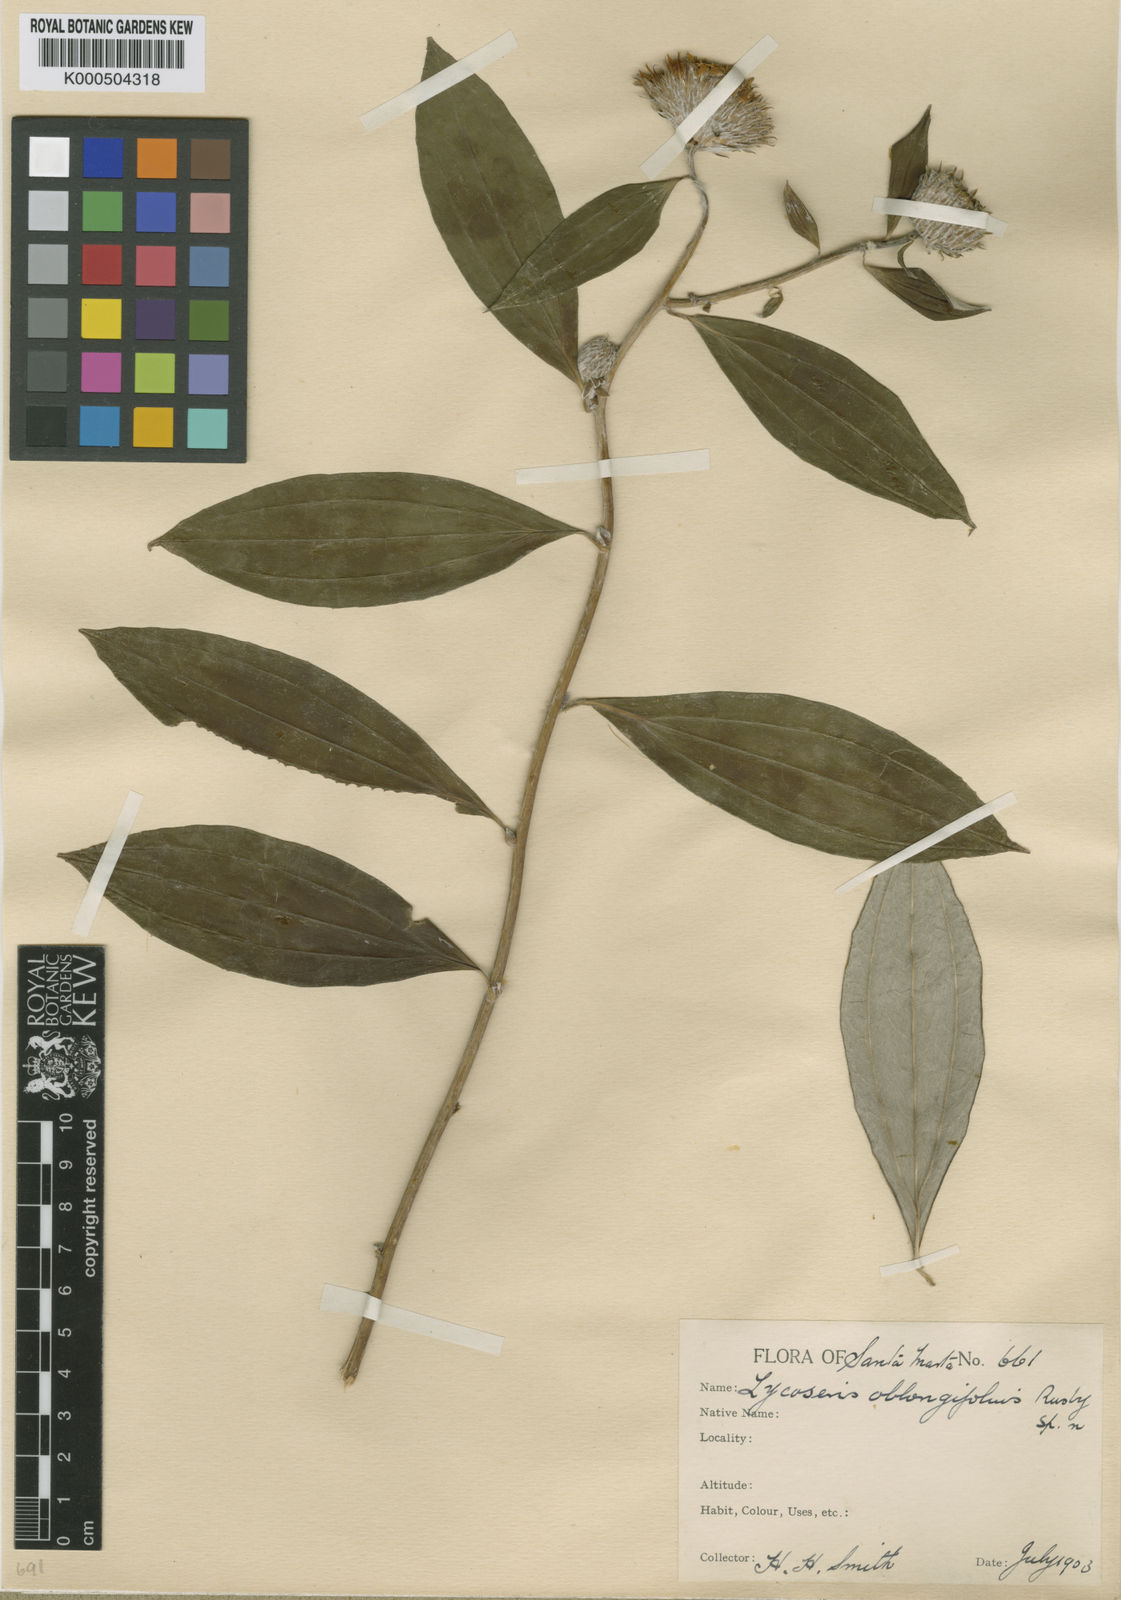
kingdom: Plantae
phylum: Tracheophyta
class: Magnoliopsida
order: Asterales
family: Asteraceae
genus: Lycoseris
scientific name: Lycoseris triplinervia
